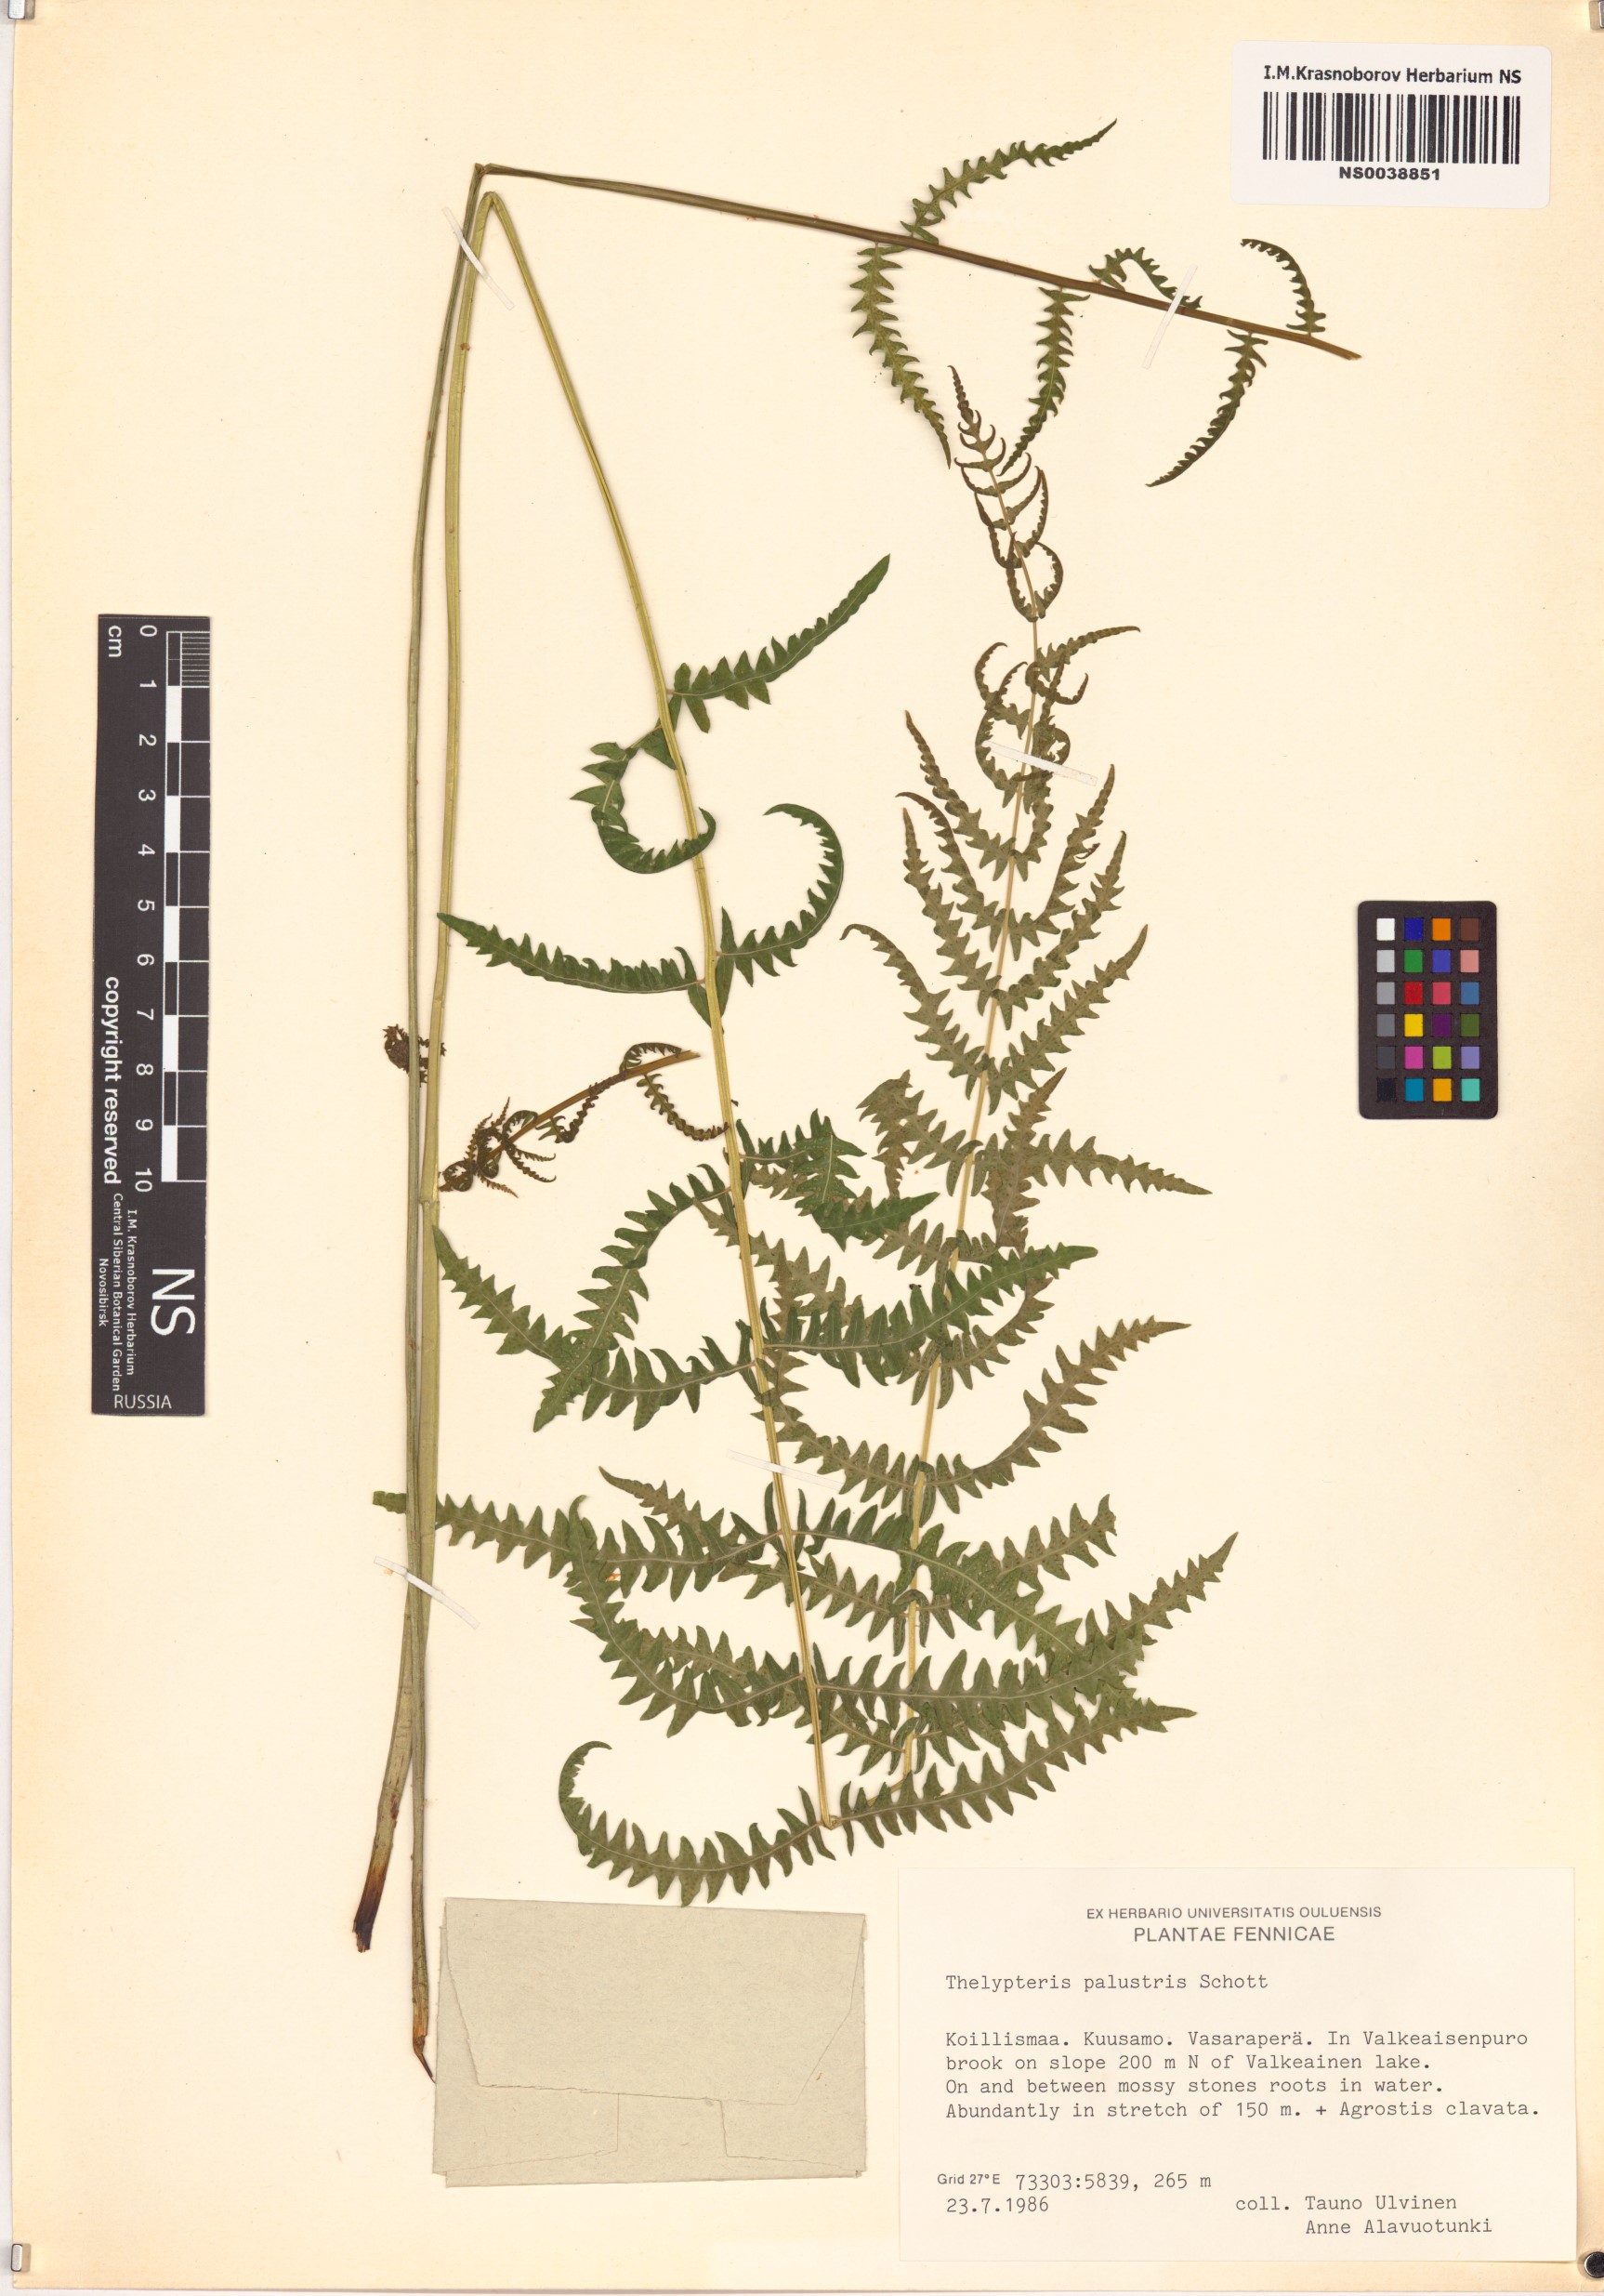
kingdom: Plantae
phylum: Tracheophyta
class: Polypodiopsida
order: Polypodiales
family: Thelypteridaceae
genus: Thelypteris
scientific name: Thelypteris palustris
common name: Marsh fern
